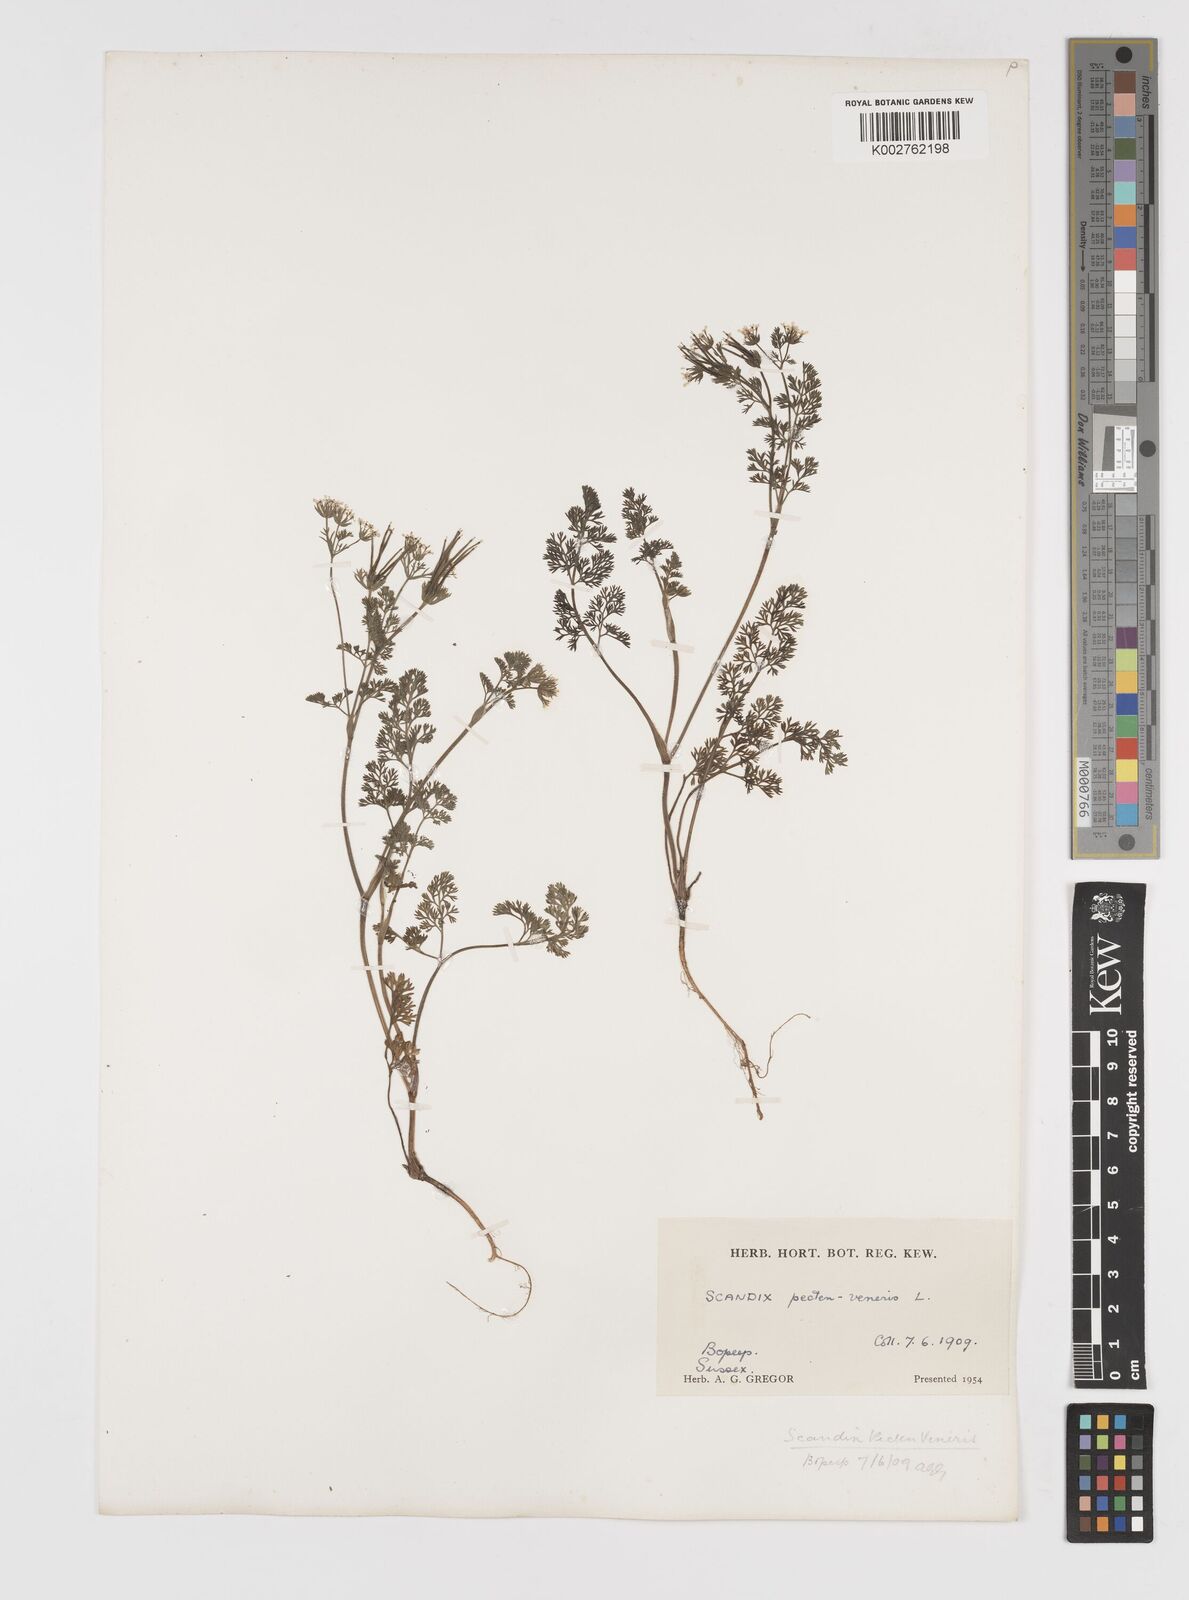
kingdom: Plantae
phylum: Tracheophyta
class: Magnoliopsida
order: Apiales
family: Apiaceae
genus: Scandix
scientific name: Scandix pecten-veneris
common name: Shepherd's-needle
